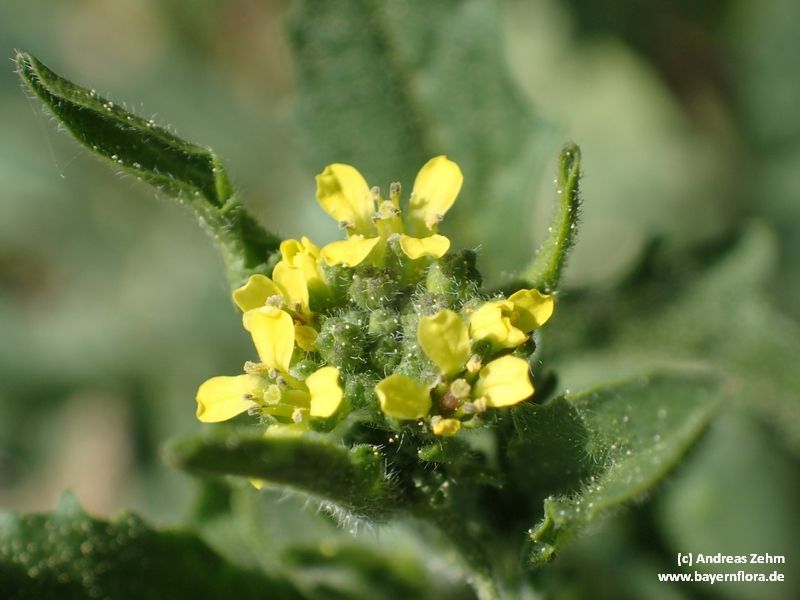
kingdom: Plantae
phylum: Tracheophyta
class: Magnoliopsida
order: Brassicales
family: Brassicaceae
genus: Sisymbrium
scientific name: Sisymbrium officinale
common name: Hedge mustard
